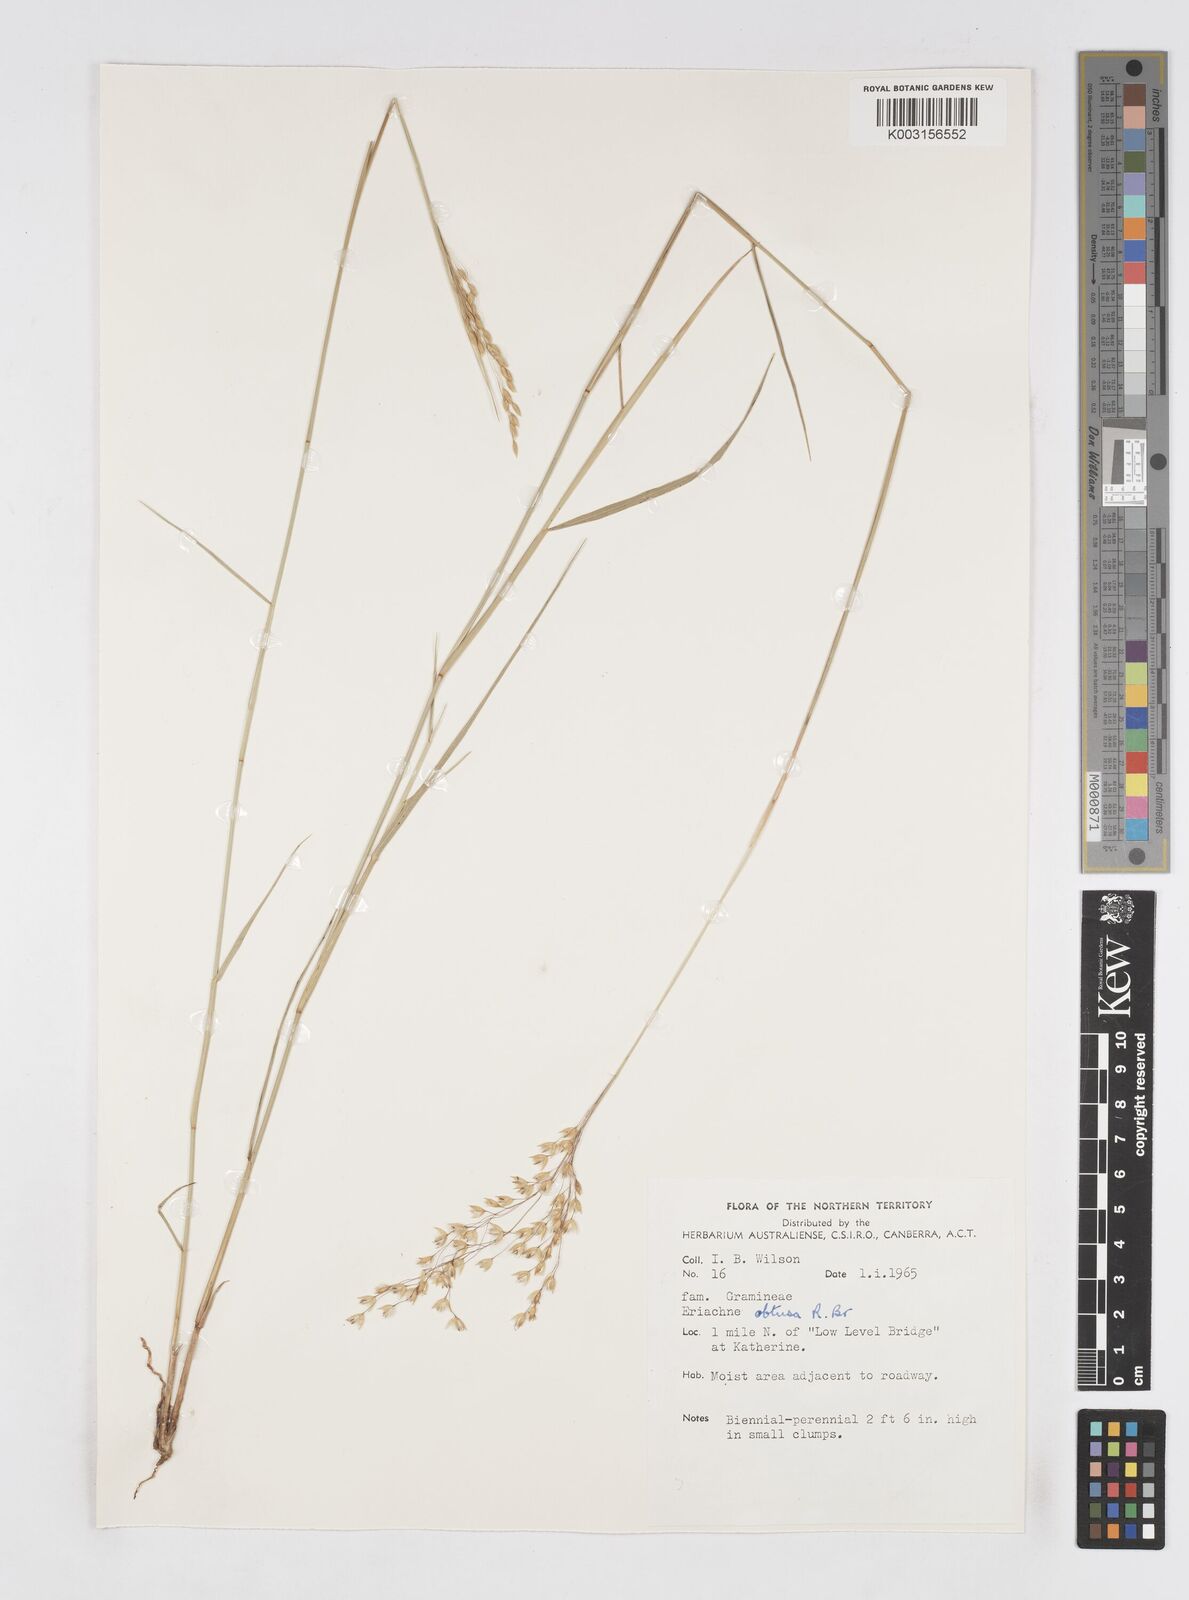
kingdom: Plantae
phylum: Tracheophyta
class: Liliopsida
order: Poales
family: Poaceae
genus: Eriachne
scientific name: Eriachne obtusa
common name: Northern wanderrie grass
